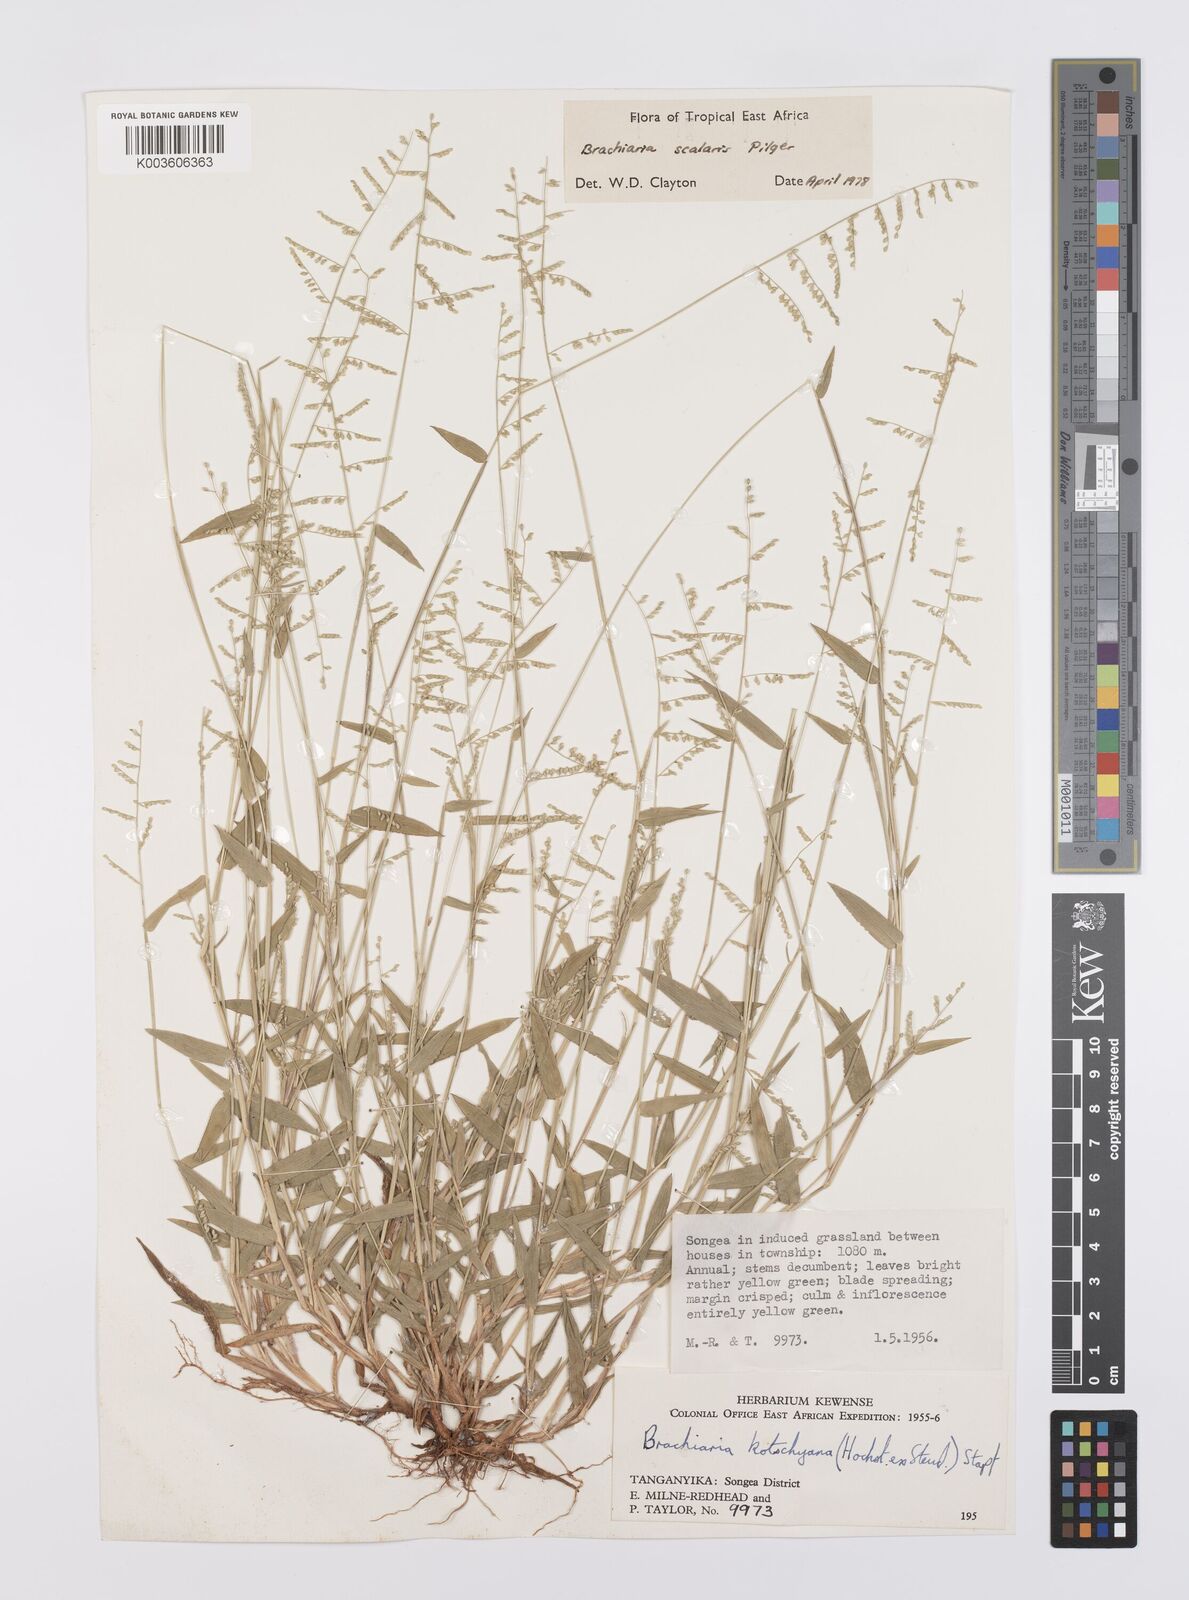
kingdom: Plantae
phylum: Tracheophyta
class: Liliopsida
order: Poales
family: Poaceae
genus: Urochloa
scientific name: Urochloa comata
